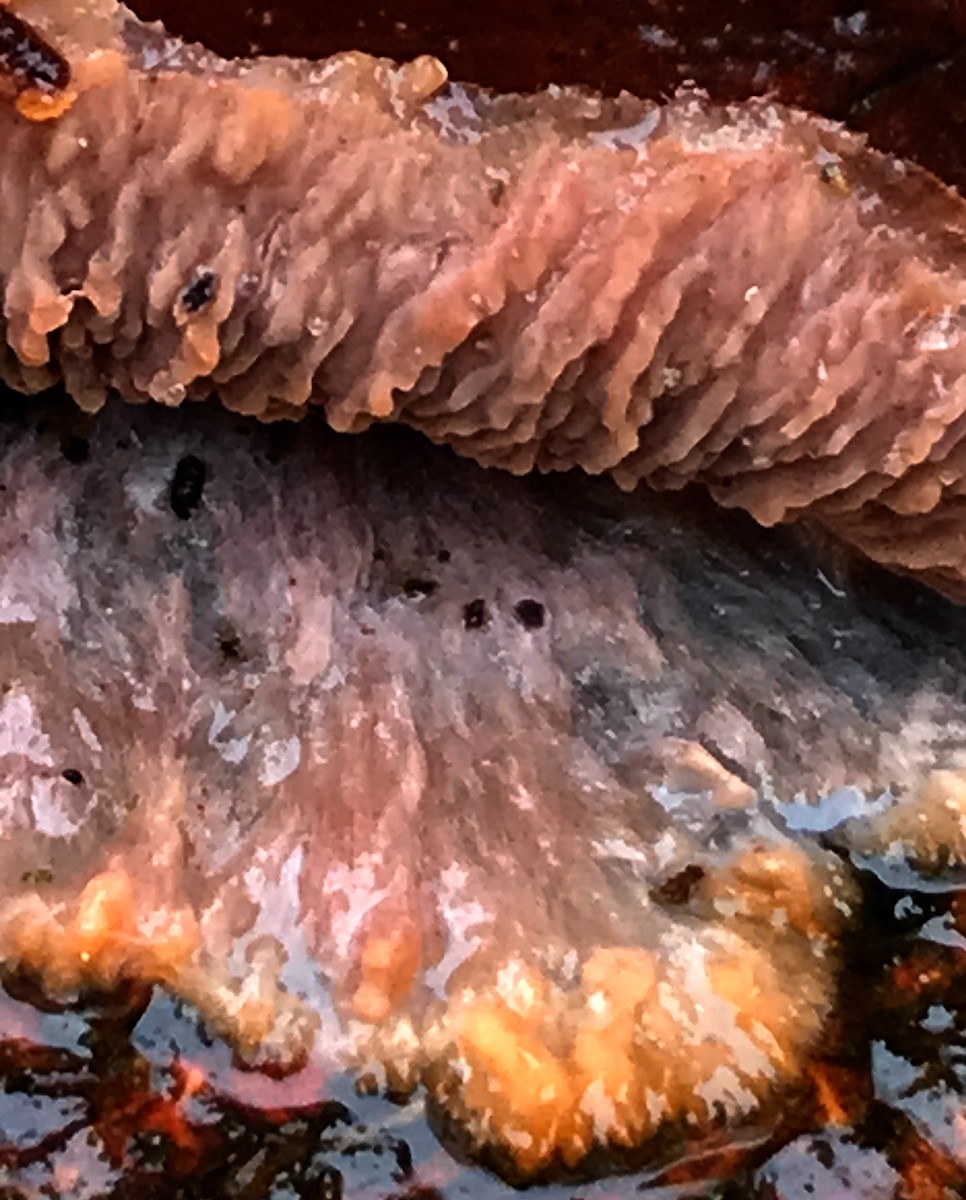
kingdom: Fungi
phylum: Basidiomycota
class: Agaricomycetes
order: Polyporales
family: Meruliaceae
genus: Phlebia
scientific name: Phlebia radiata
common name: stråle-åresvamp
